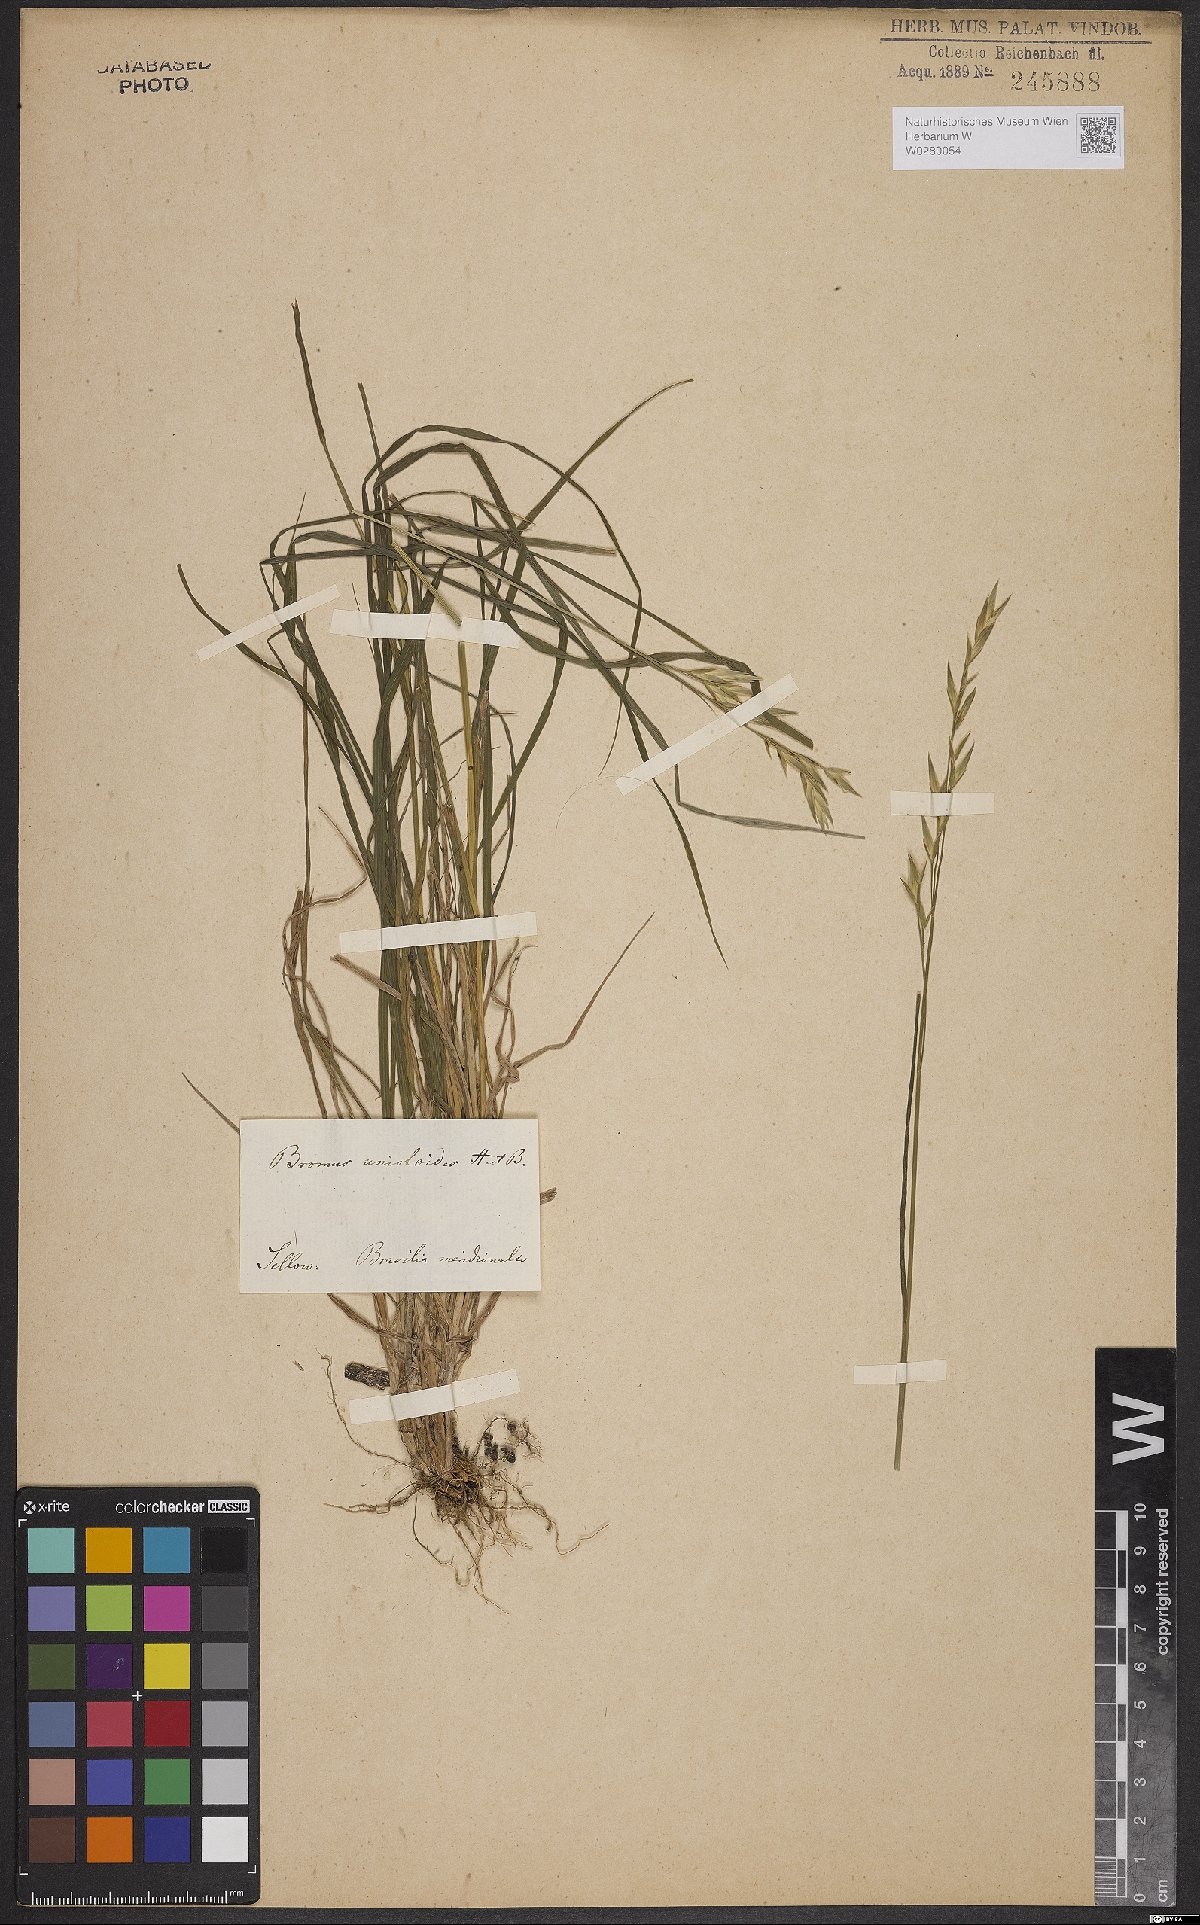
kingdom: Plantae
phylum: Tracheophyta
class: Liliopsida
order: Poales
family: Poaceae
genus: Bromus
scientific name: Bromus catharticus
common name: Rescuegrass
